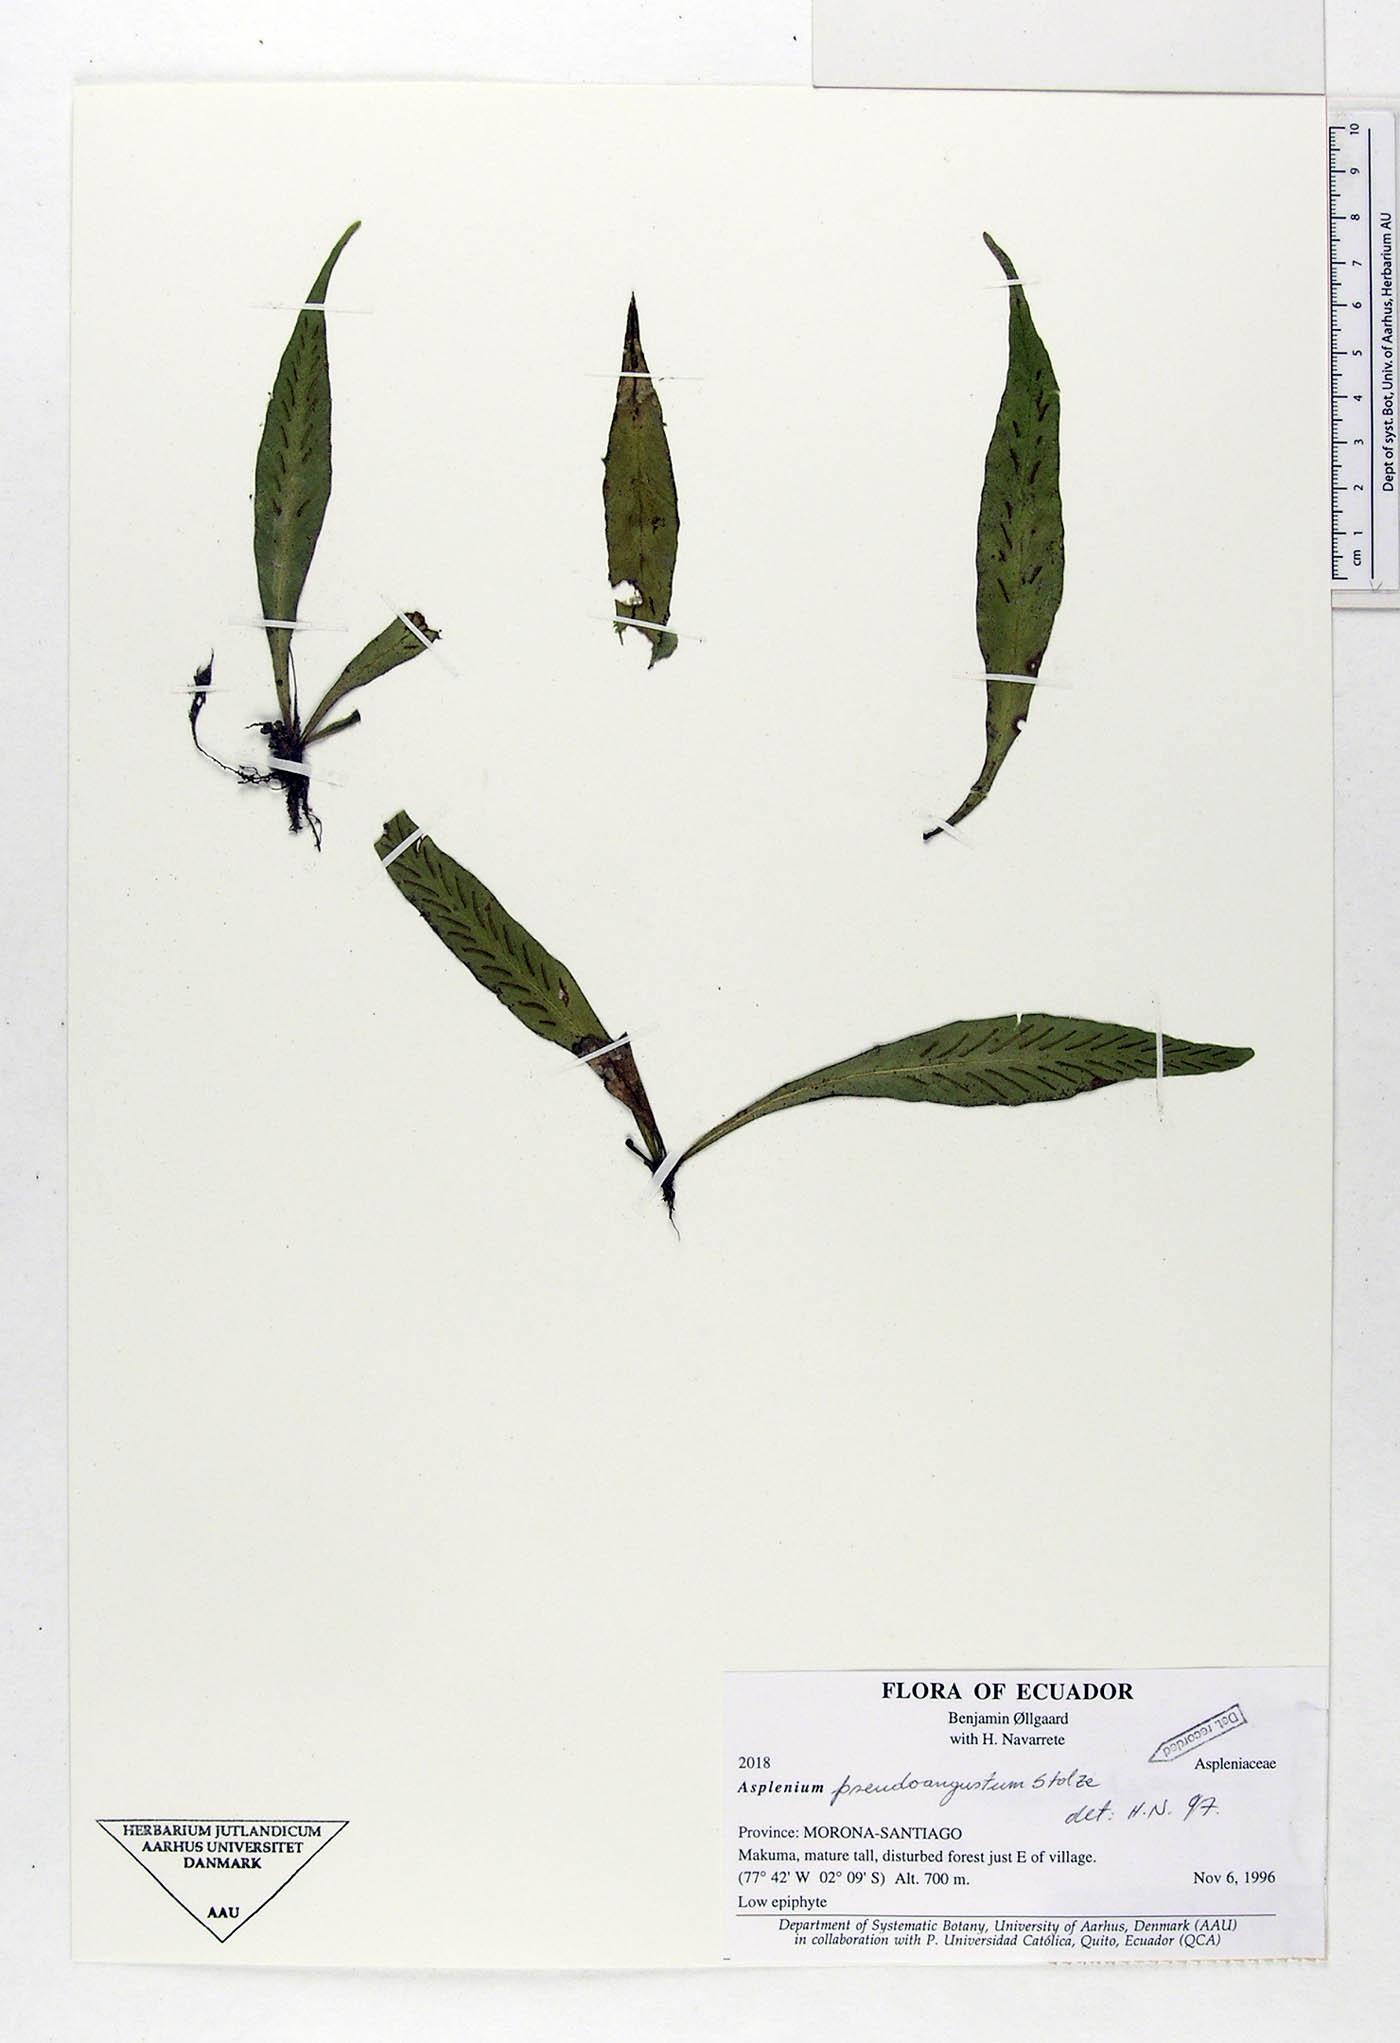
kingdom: Plantae
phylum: Tracheophyta
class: Polypodiopsida
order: Polypodiales
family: Aspleniaceae
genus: Asplenium
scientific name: Asplenium pseudoangustum
